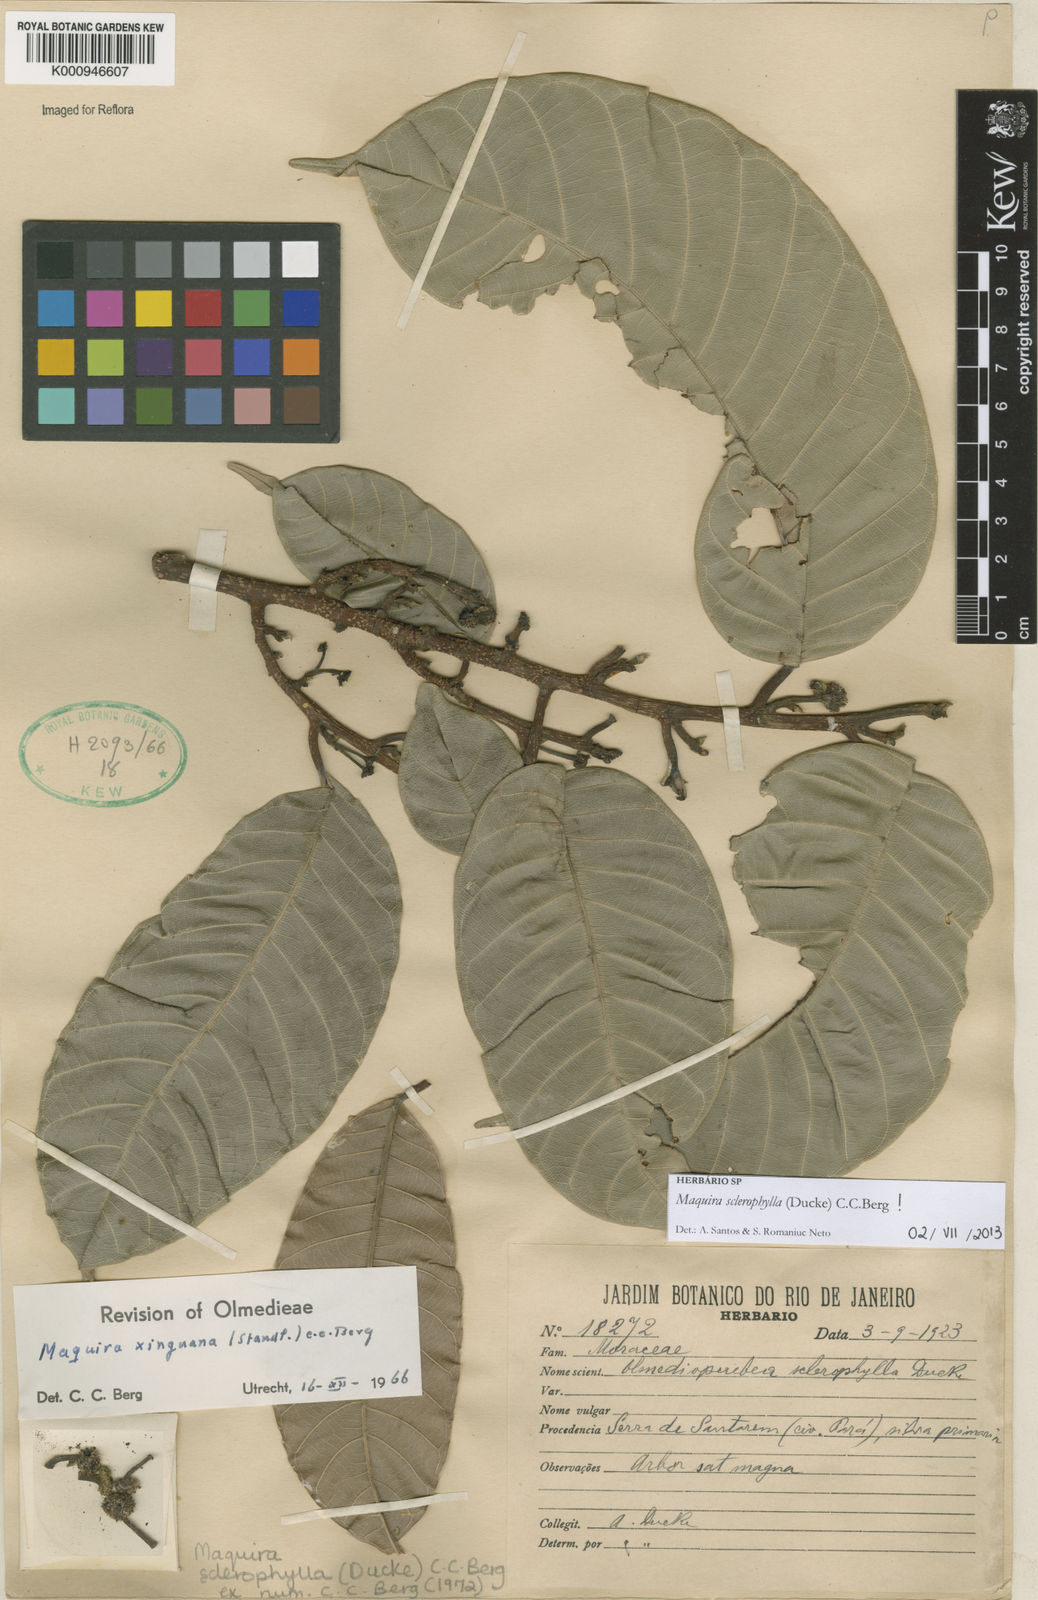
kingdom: Plantae
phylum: Tracheophyta
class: Magnoliopsida
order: Rosales
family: Moraceae
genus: Maquira
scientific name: Maquira sclerophylla
